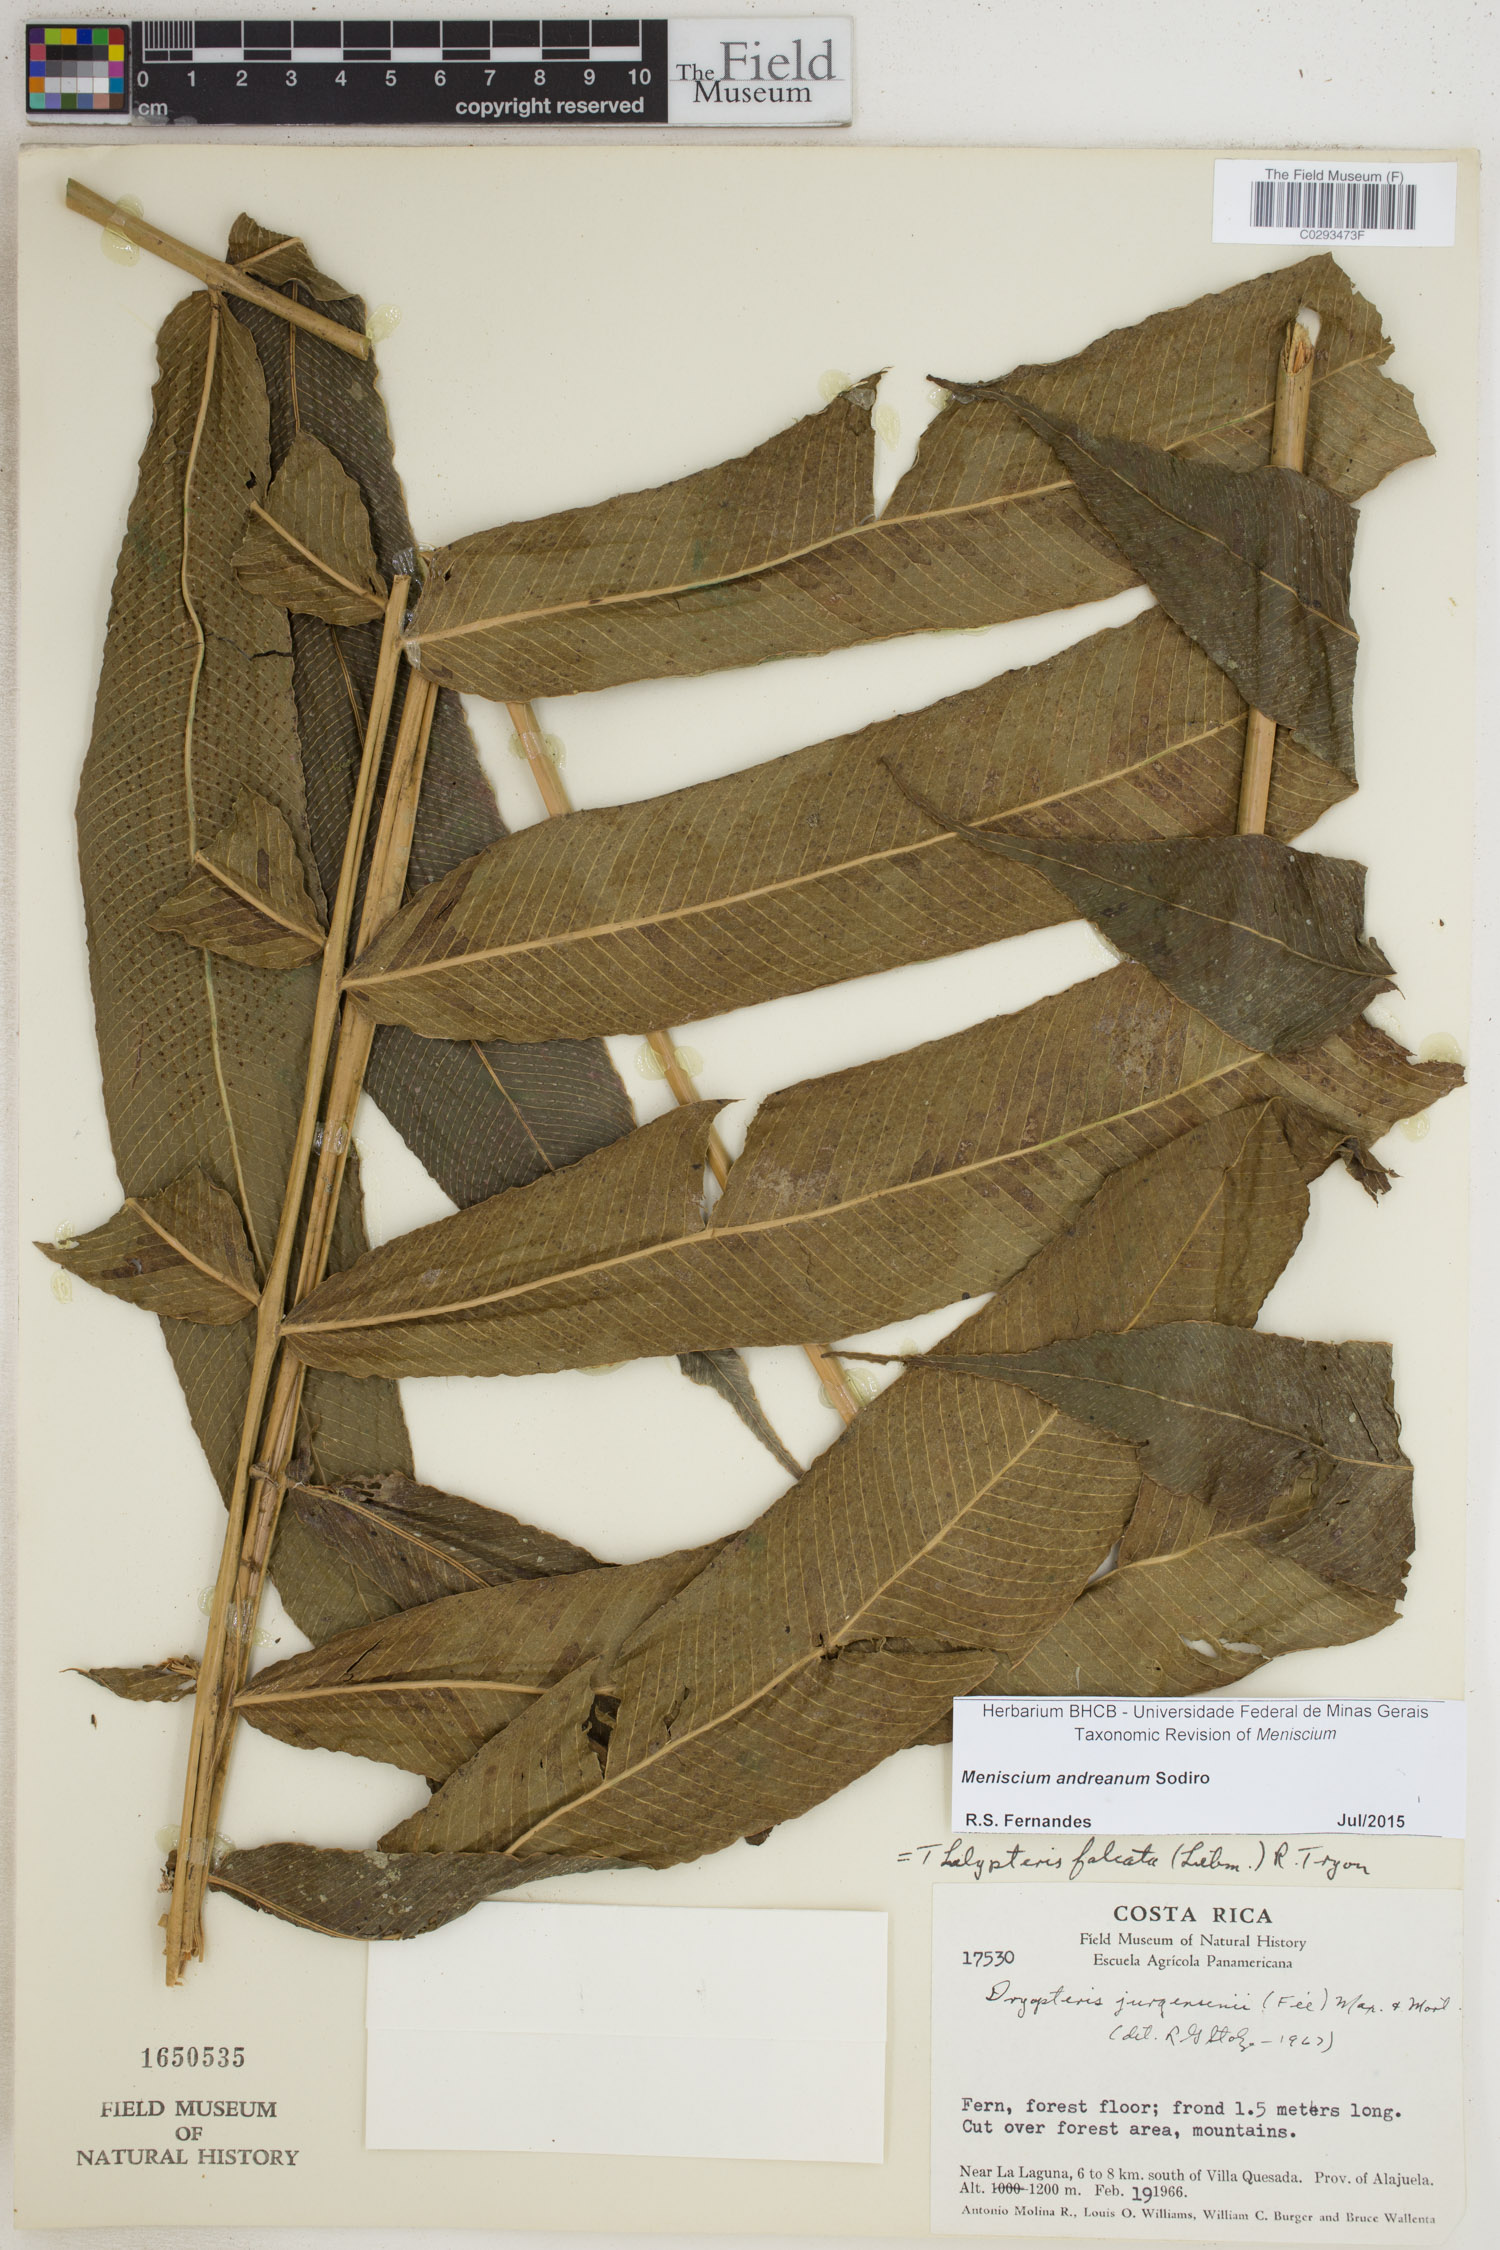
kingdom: Plantae
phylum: Tracheophyta
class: Polypodiopsida
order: Polypodiales
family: Thelypteridaceae
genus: Meniscium
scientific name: Meniscium andreanum
